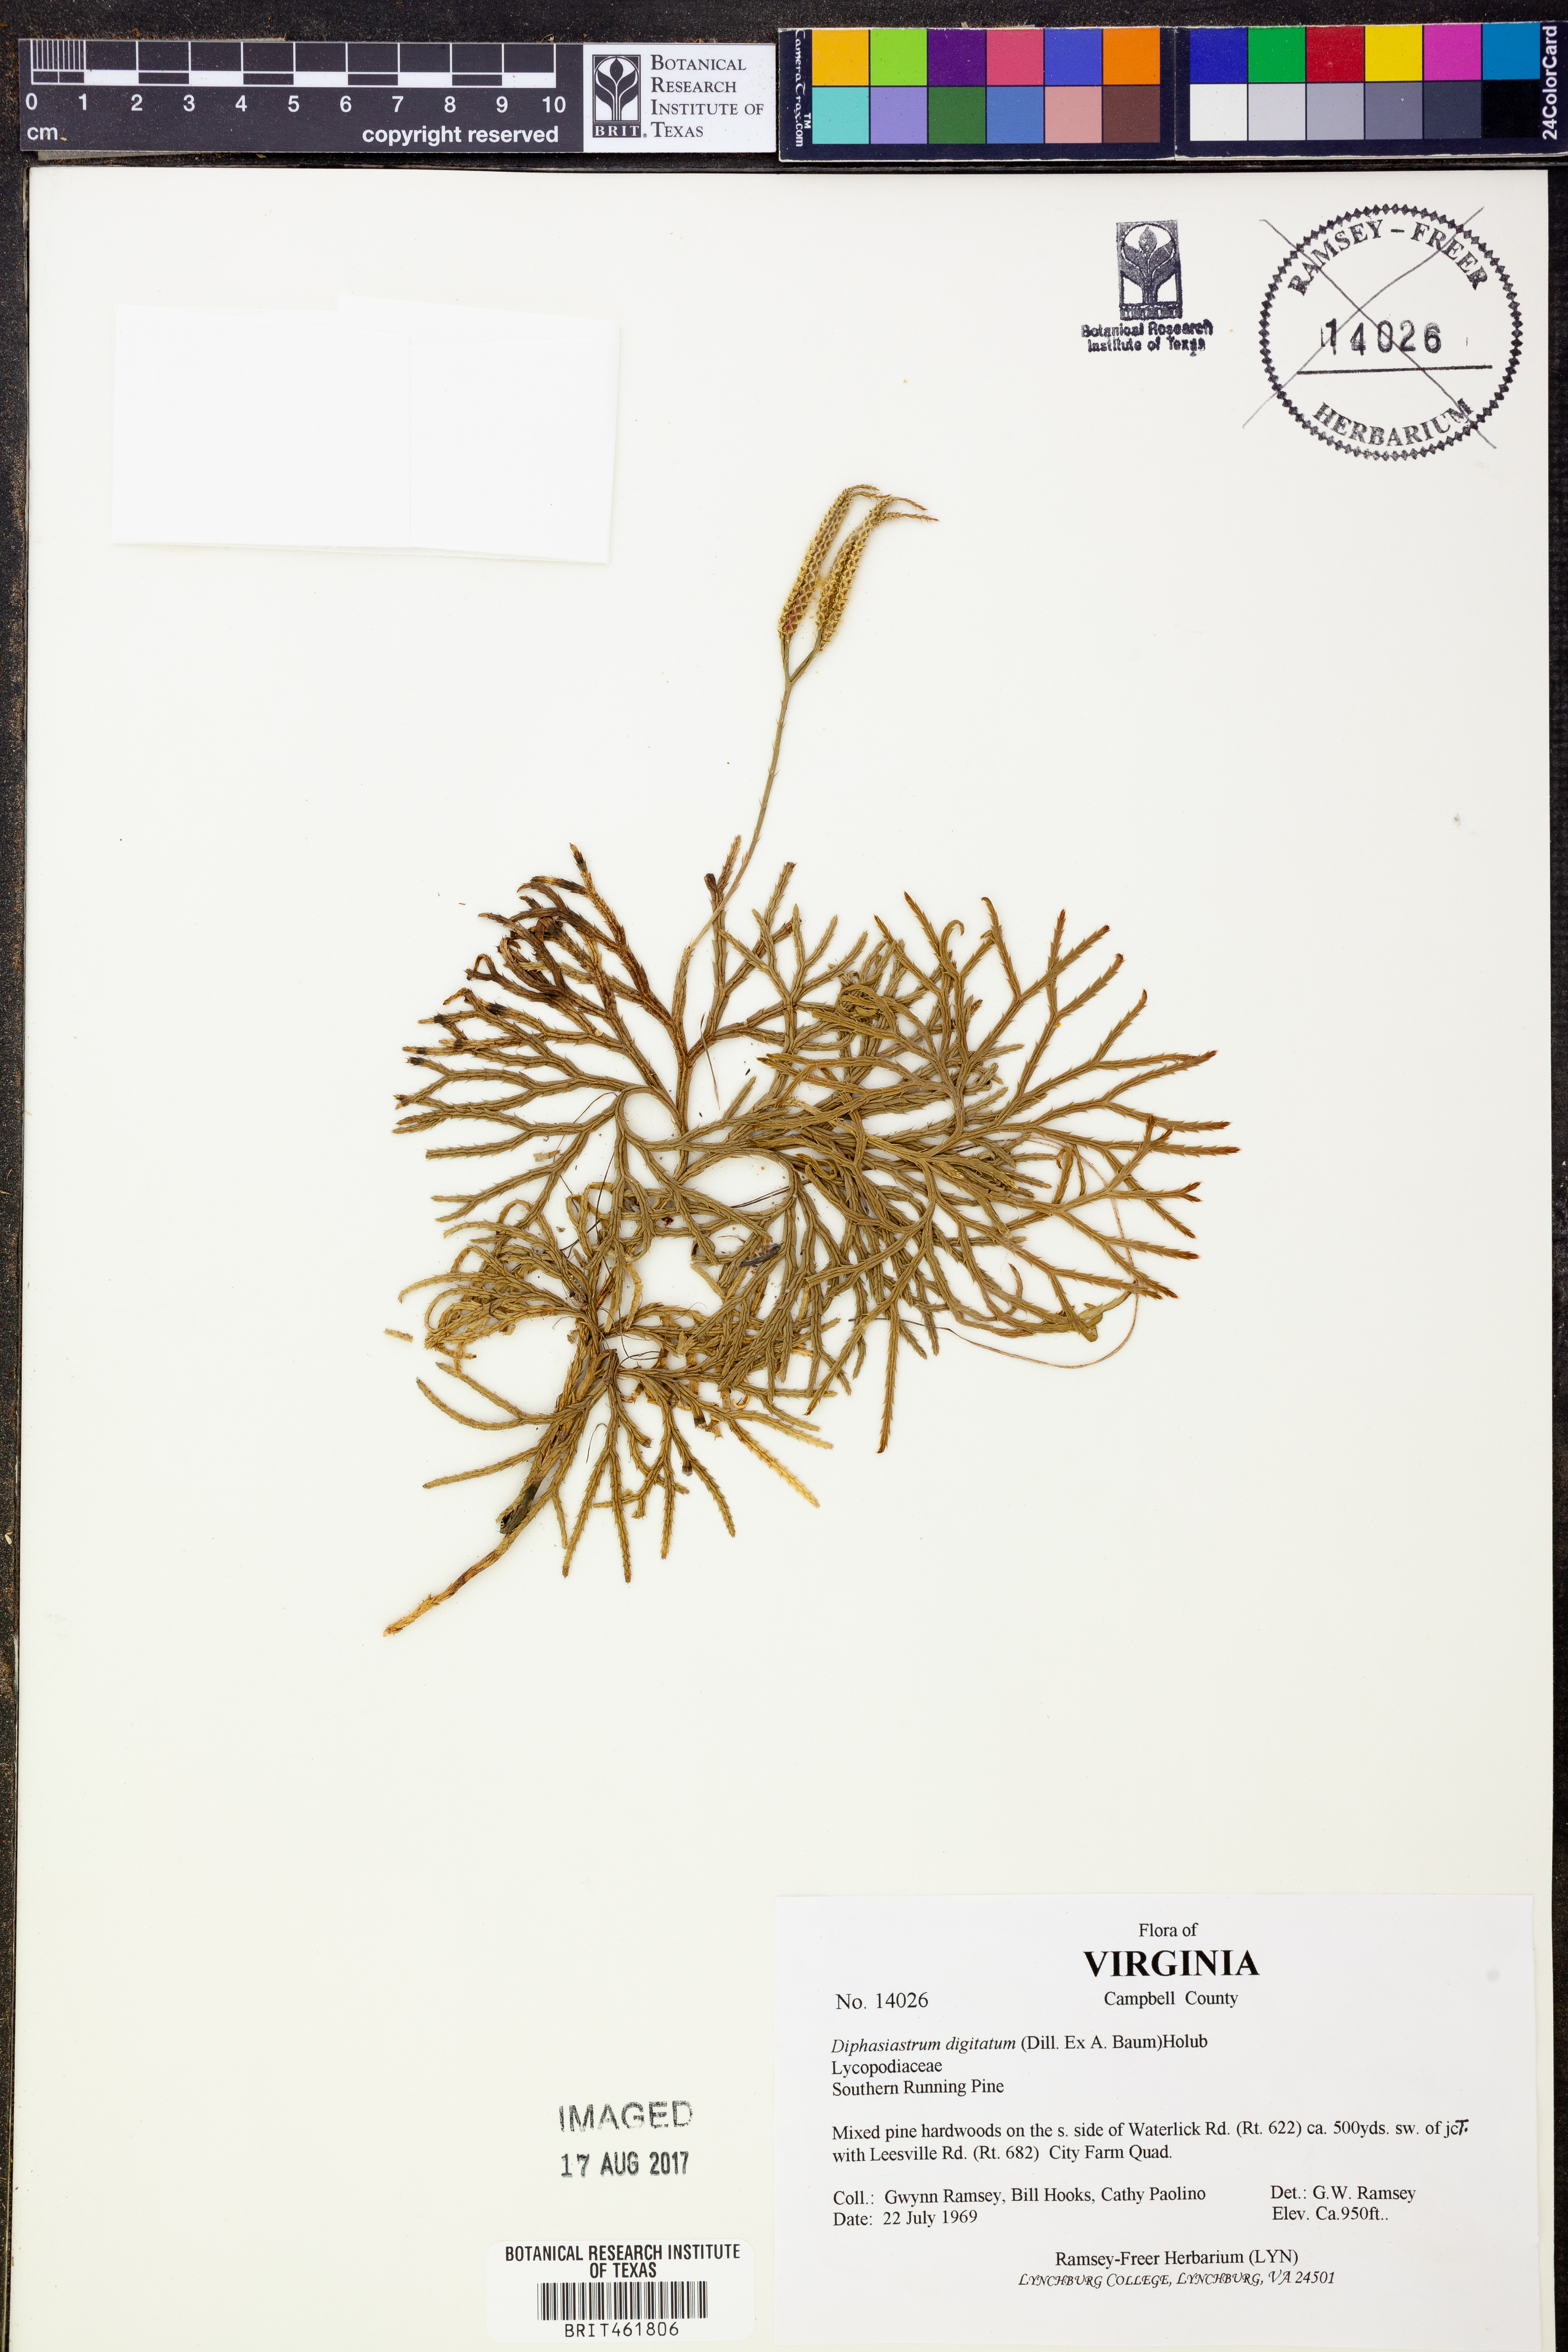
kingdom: Plantae
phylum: Tracheophyta
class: Lycopodiopsida
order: Lycopodiales
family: Lycopodiaceae
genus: Diphasiastrum
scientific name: Diphasiastrum digitatum
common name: Southern running-pine
